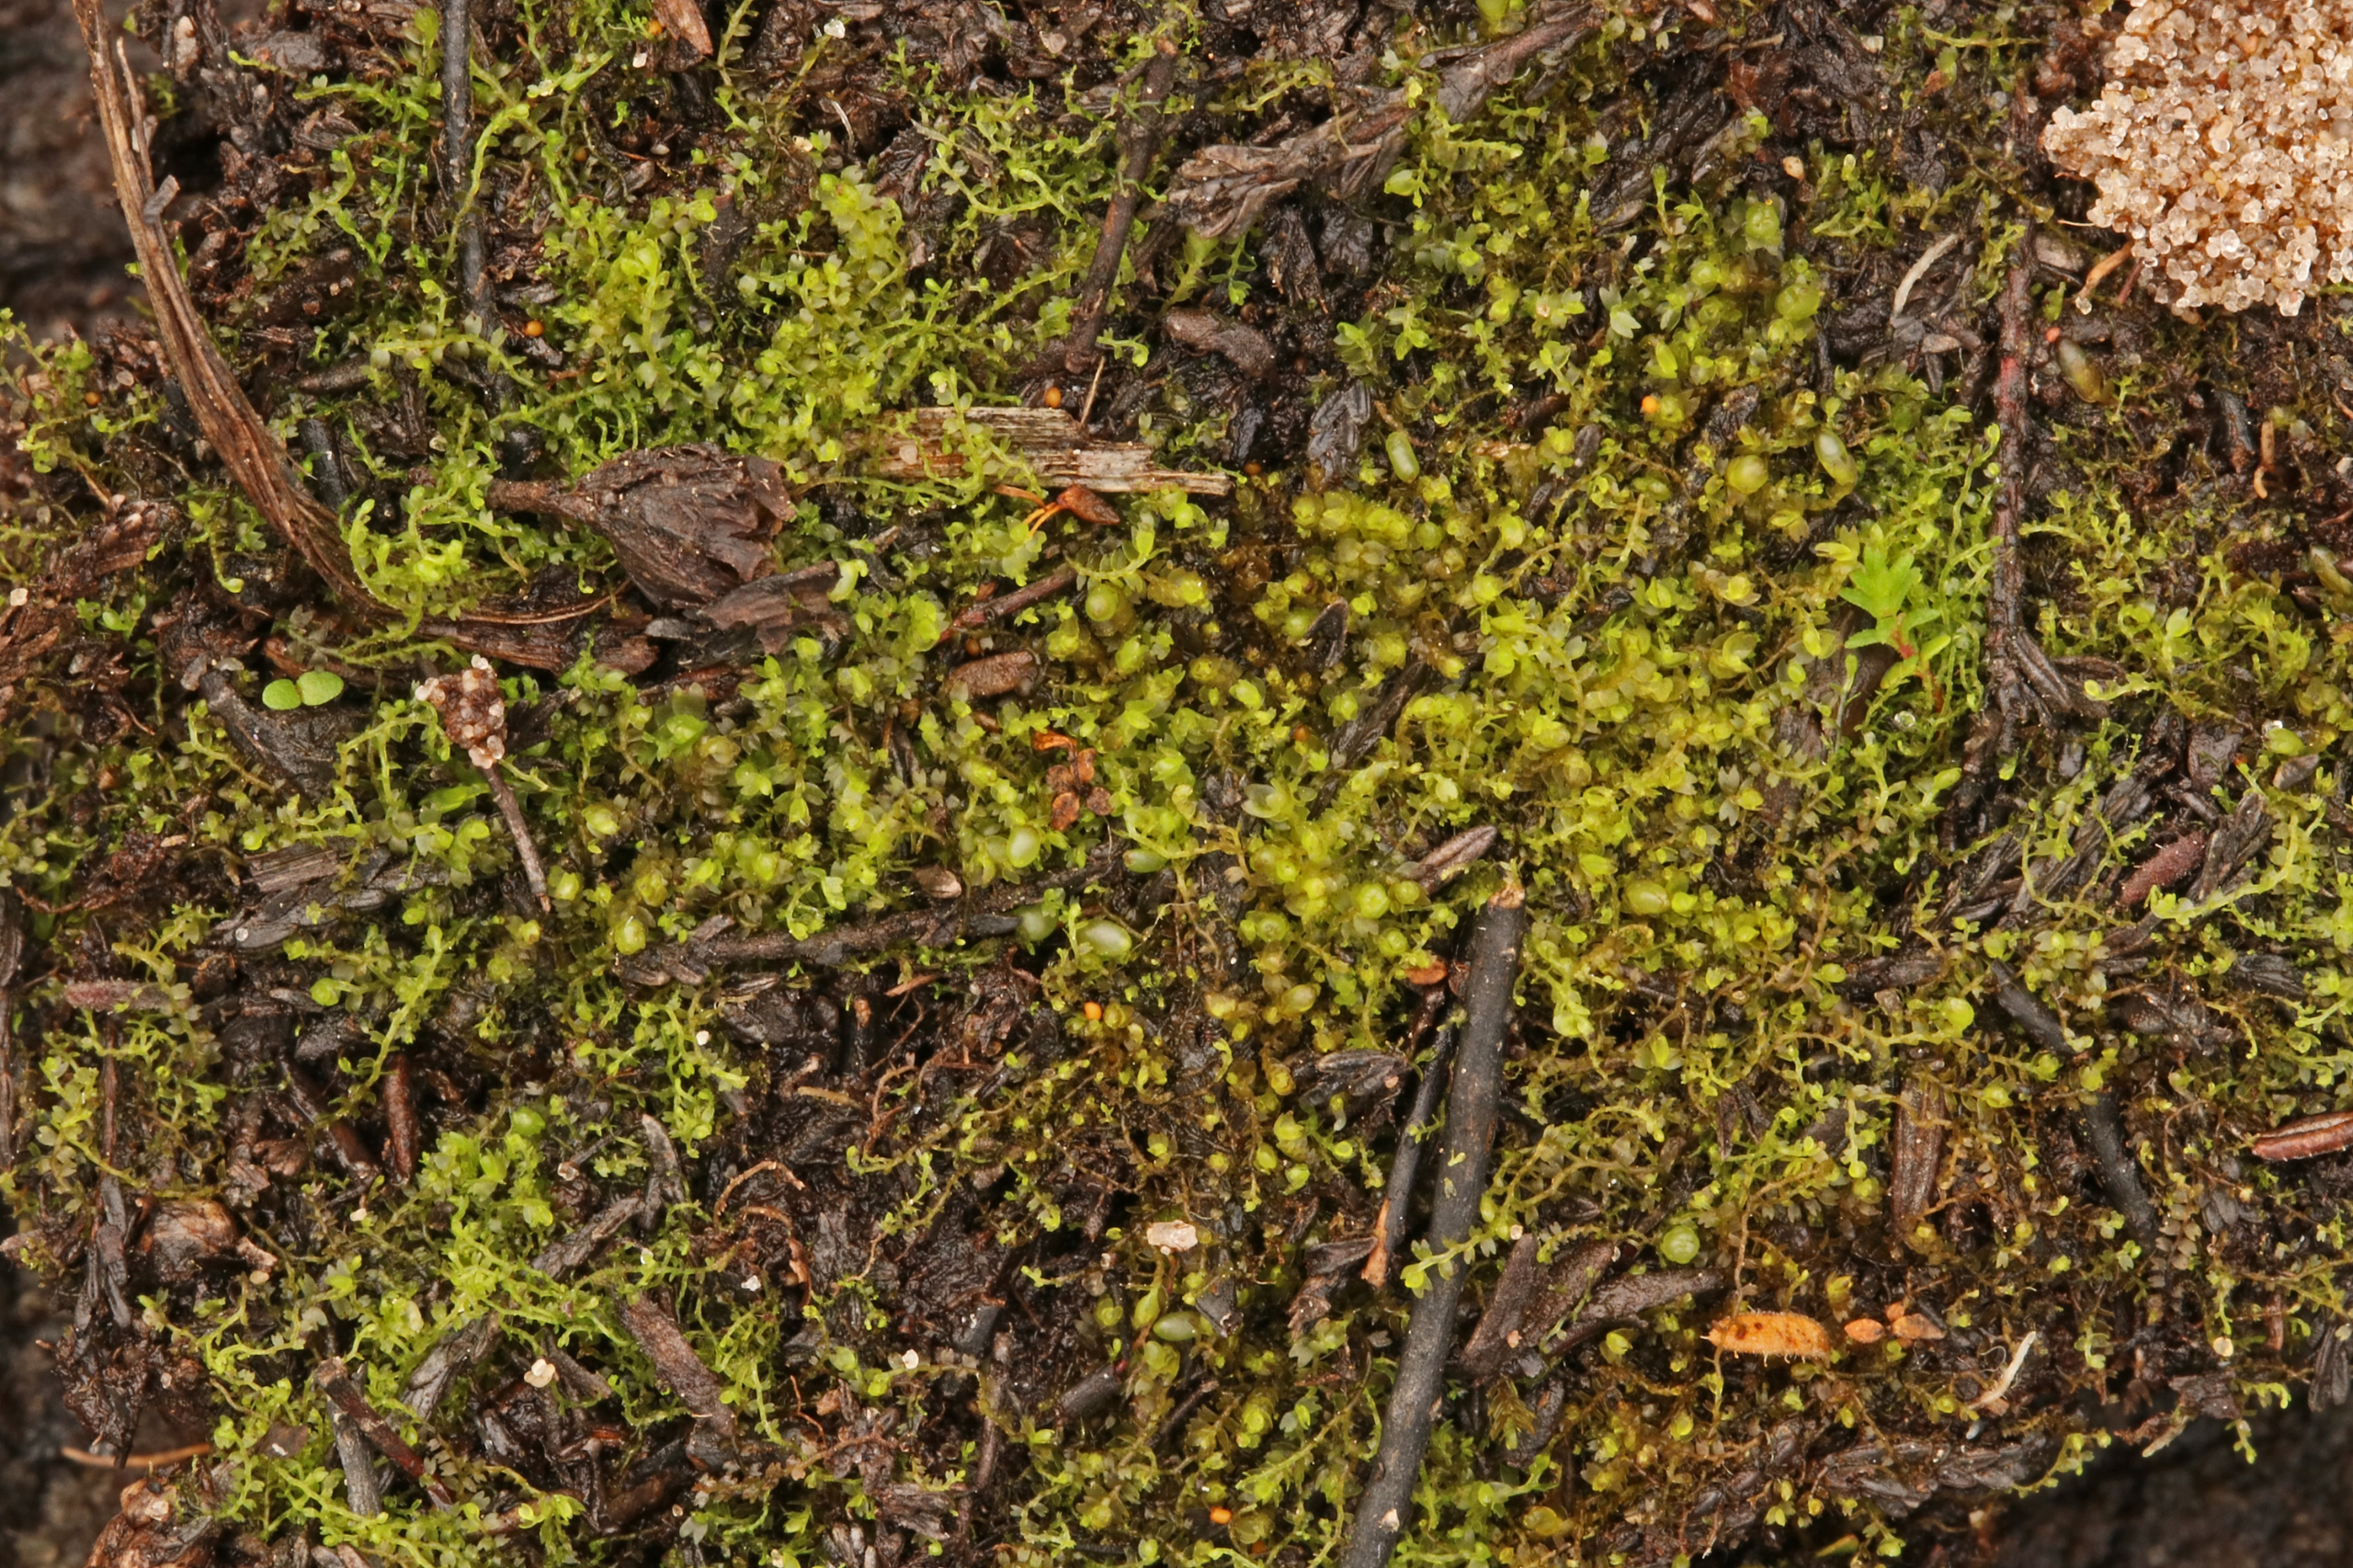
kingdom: Plantae
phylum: Marchantiophyta
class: Jungermanniopsida
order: Jungermanniales
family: Anastrophyllaceae
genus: Gymnocolea
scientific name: Gymnocolea inflata
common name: Opblæst blæremos
